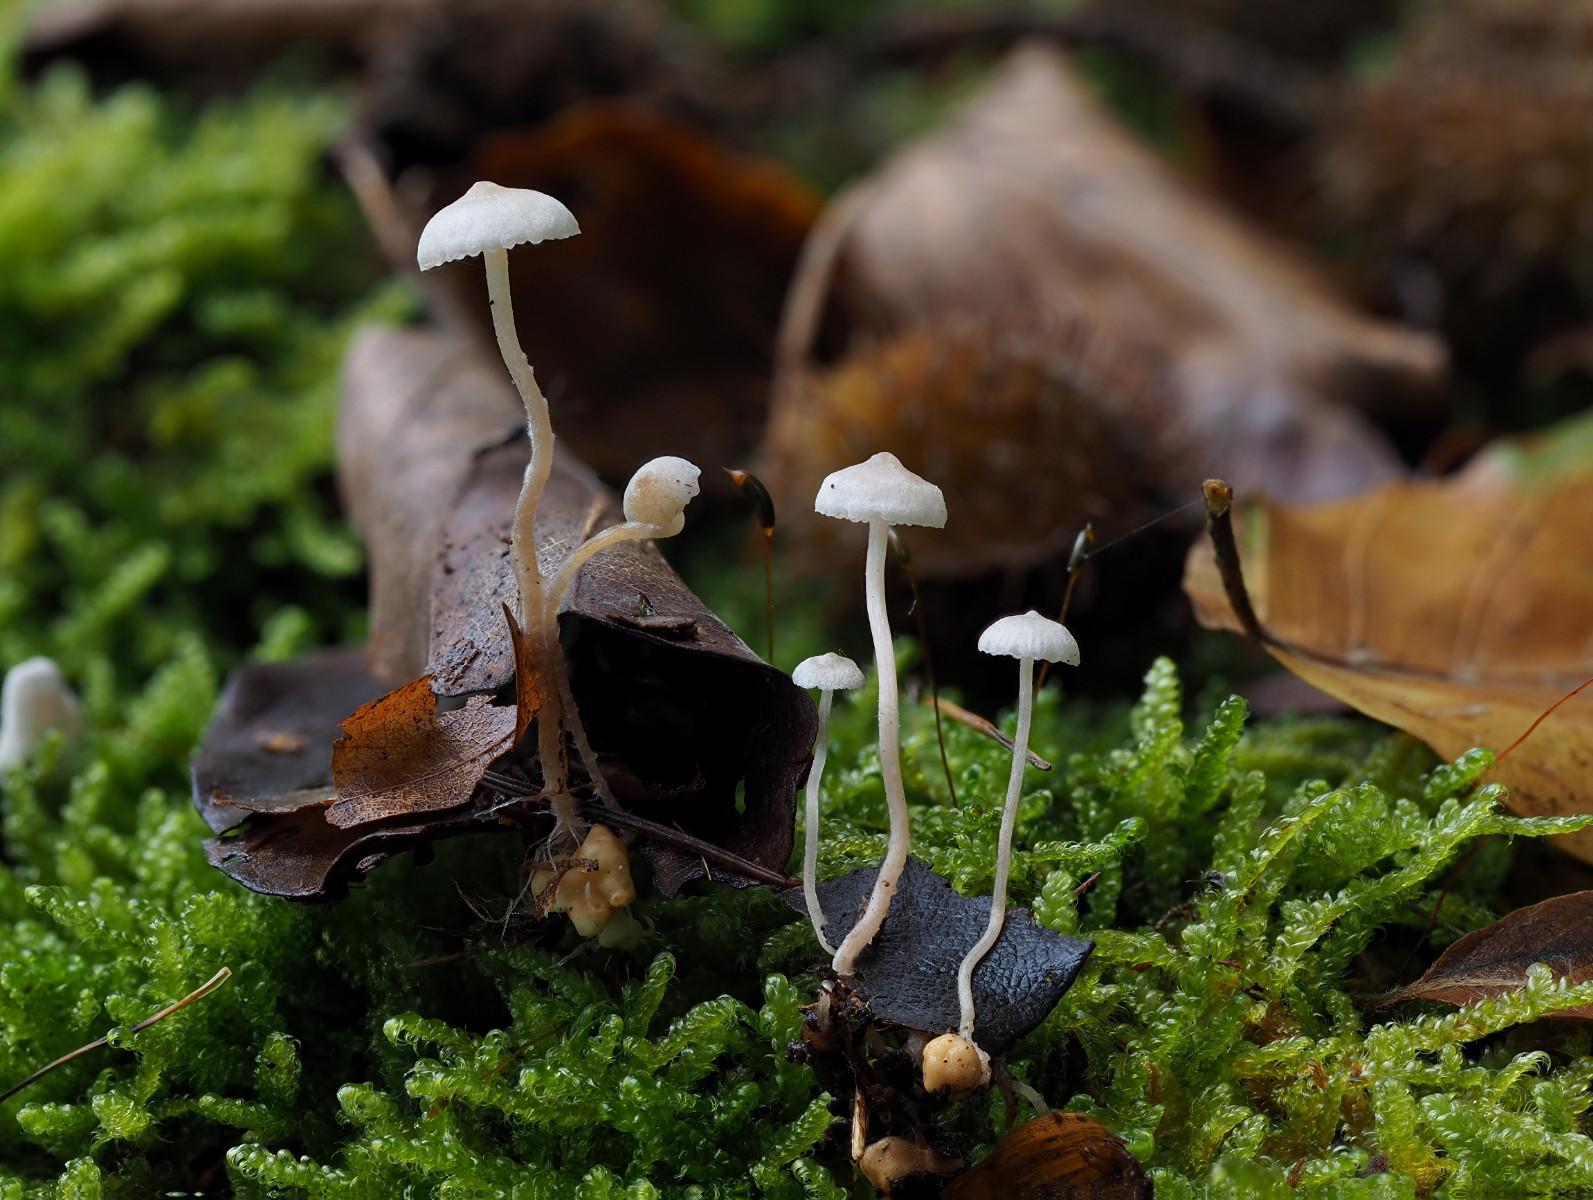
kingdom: Fungi
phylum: Basidiomycota
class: Agaricomycetes
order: Agaricales
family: Tricholomataceae
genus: Collybia
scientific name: Collybia cookei
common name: gulknoldet lighat
